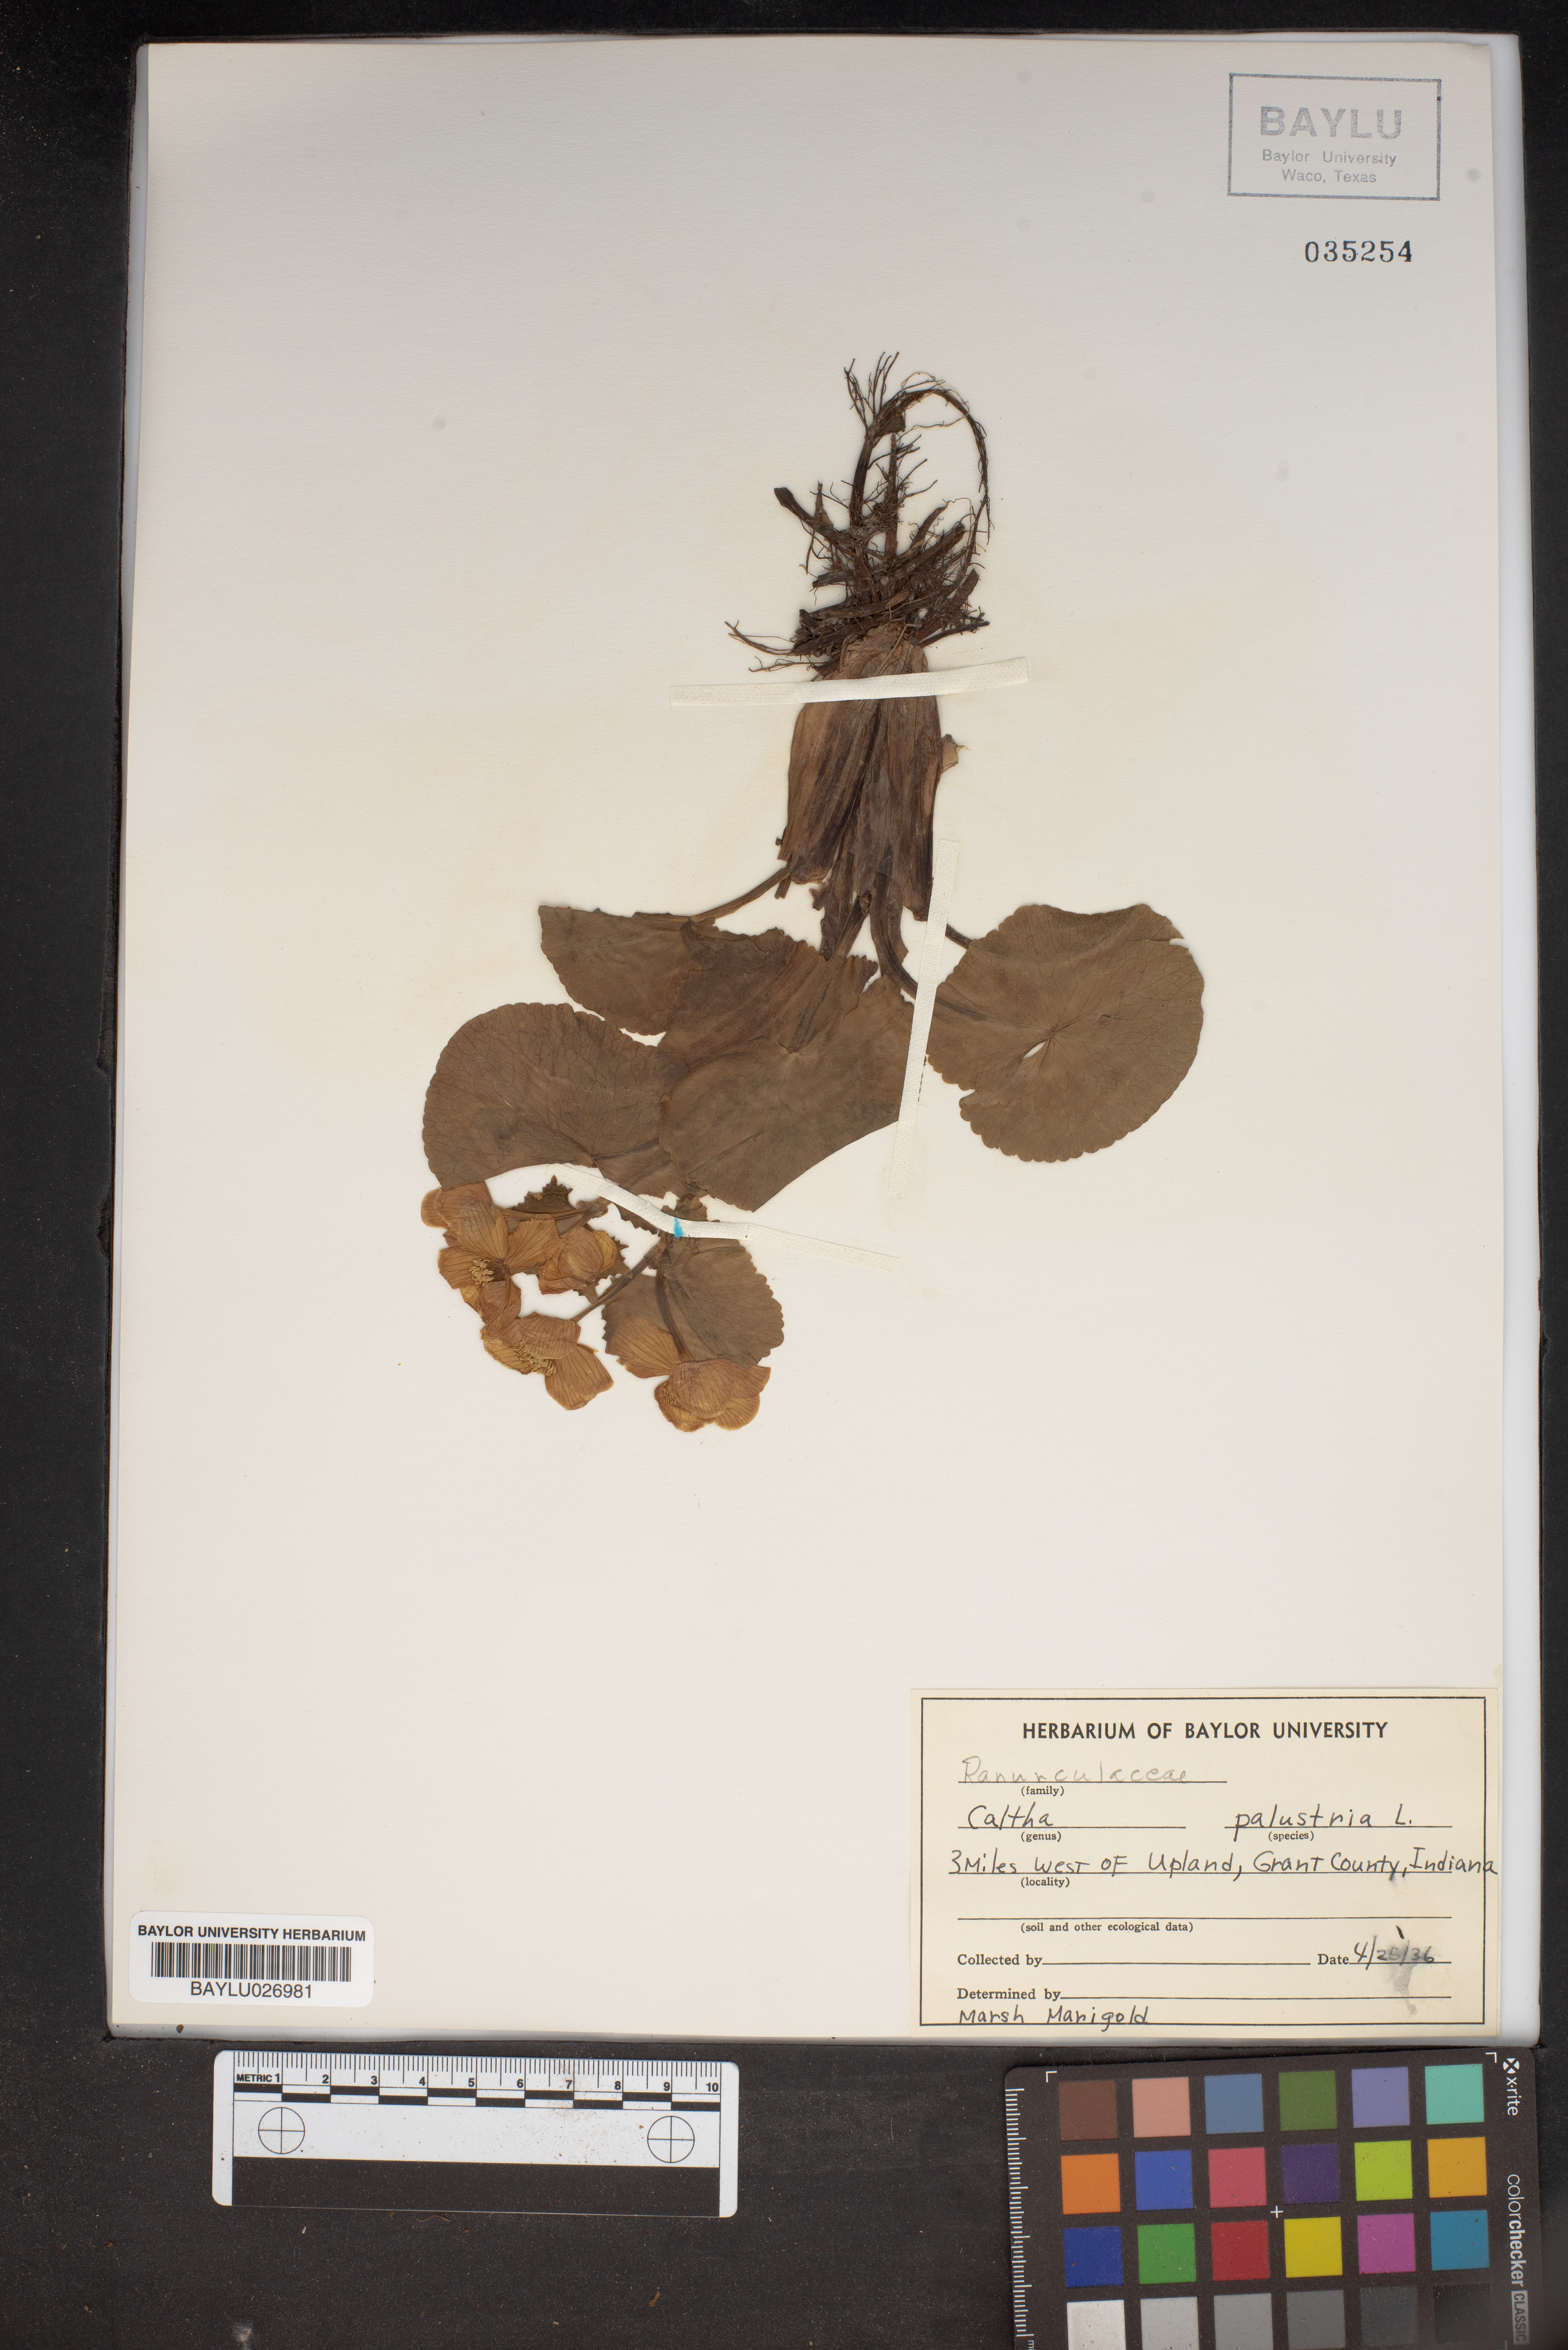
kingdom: Plantae
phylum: Tracheophyta
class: Magnoliopsida
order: Ranunculales
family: Ranunculaceae
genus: Caltha
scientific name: Caltha palustris
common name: Marsh marigold
